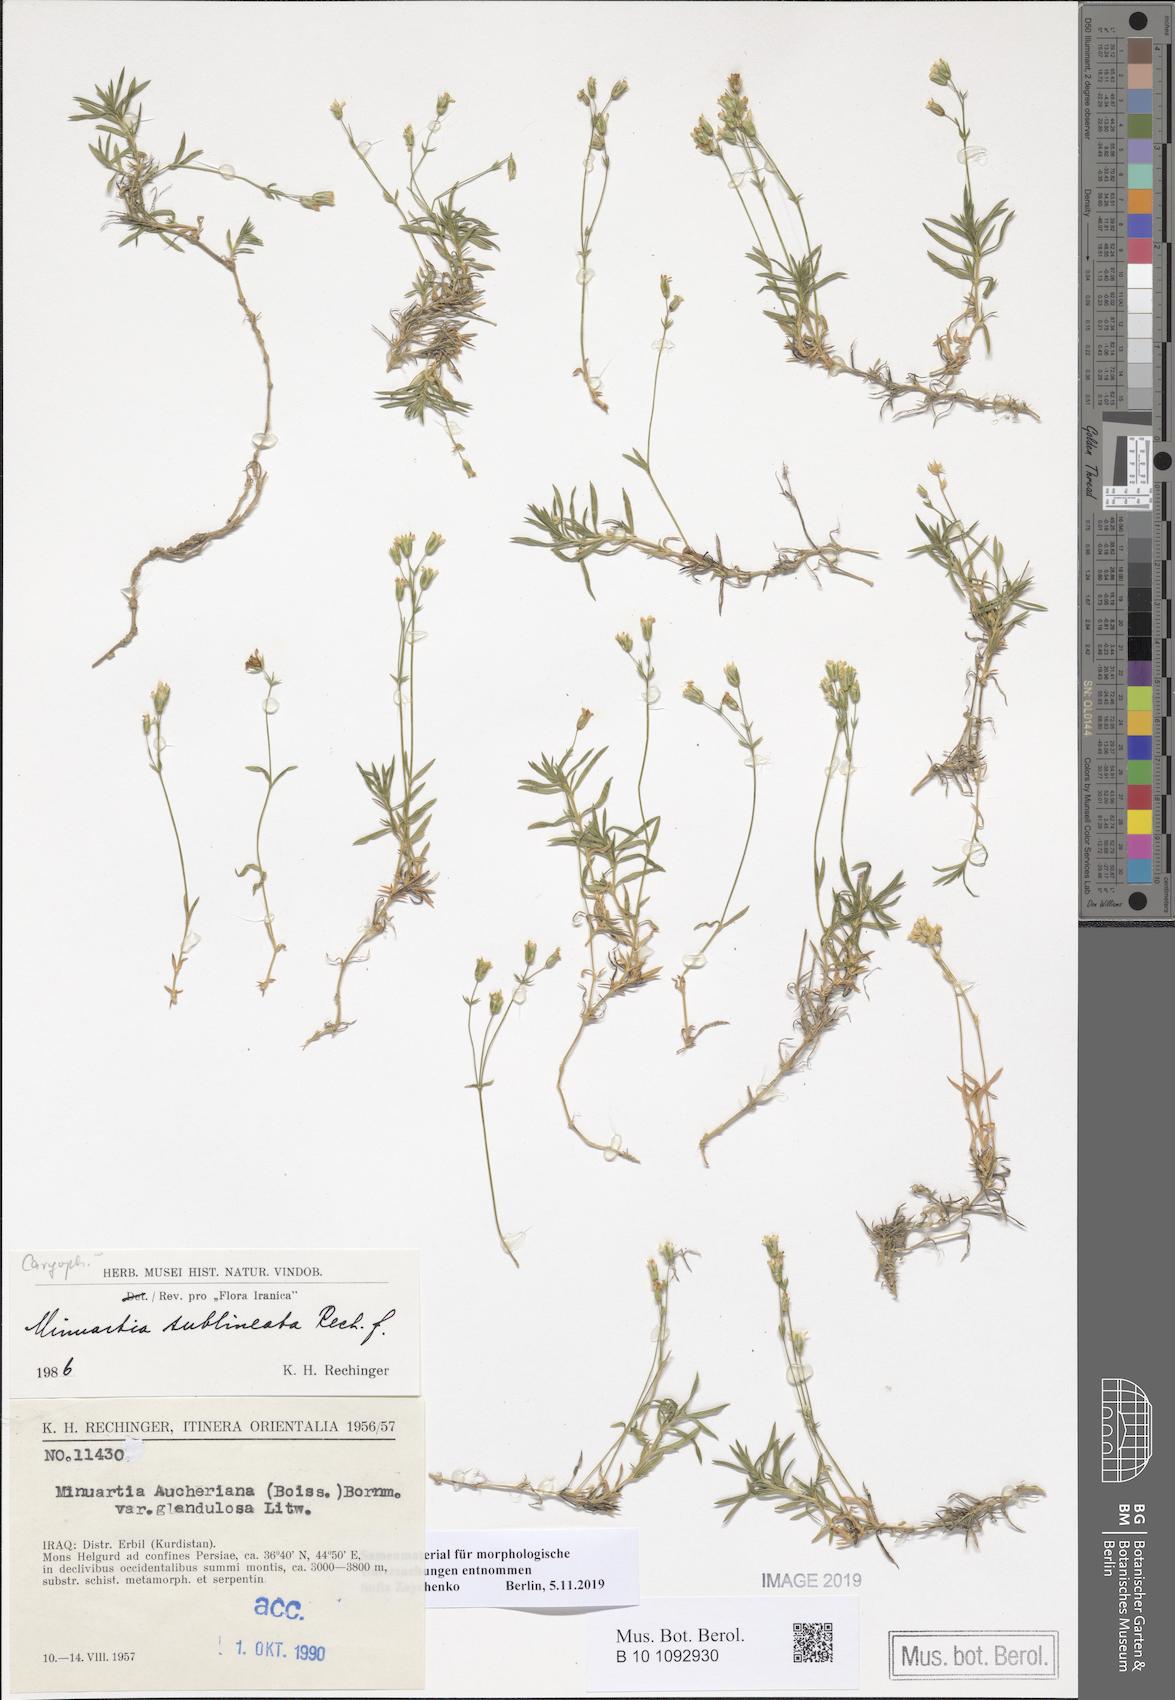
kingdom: Plantae
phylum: Tracheophyta
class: Magnoliopsida
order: Caryophyllales
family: Caryophyllaceae
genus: Sabulina
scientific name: Sabulina sublineata
